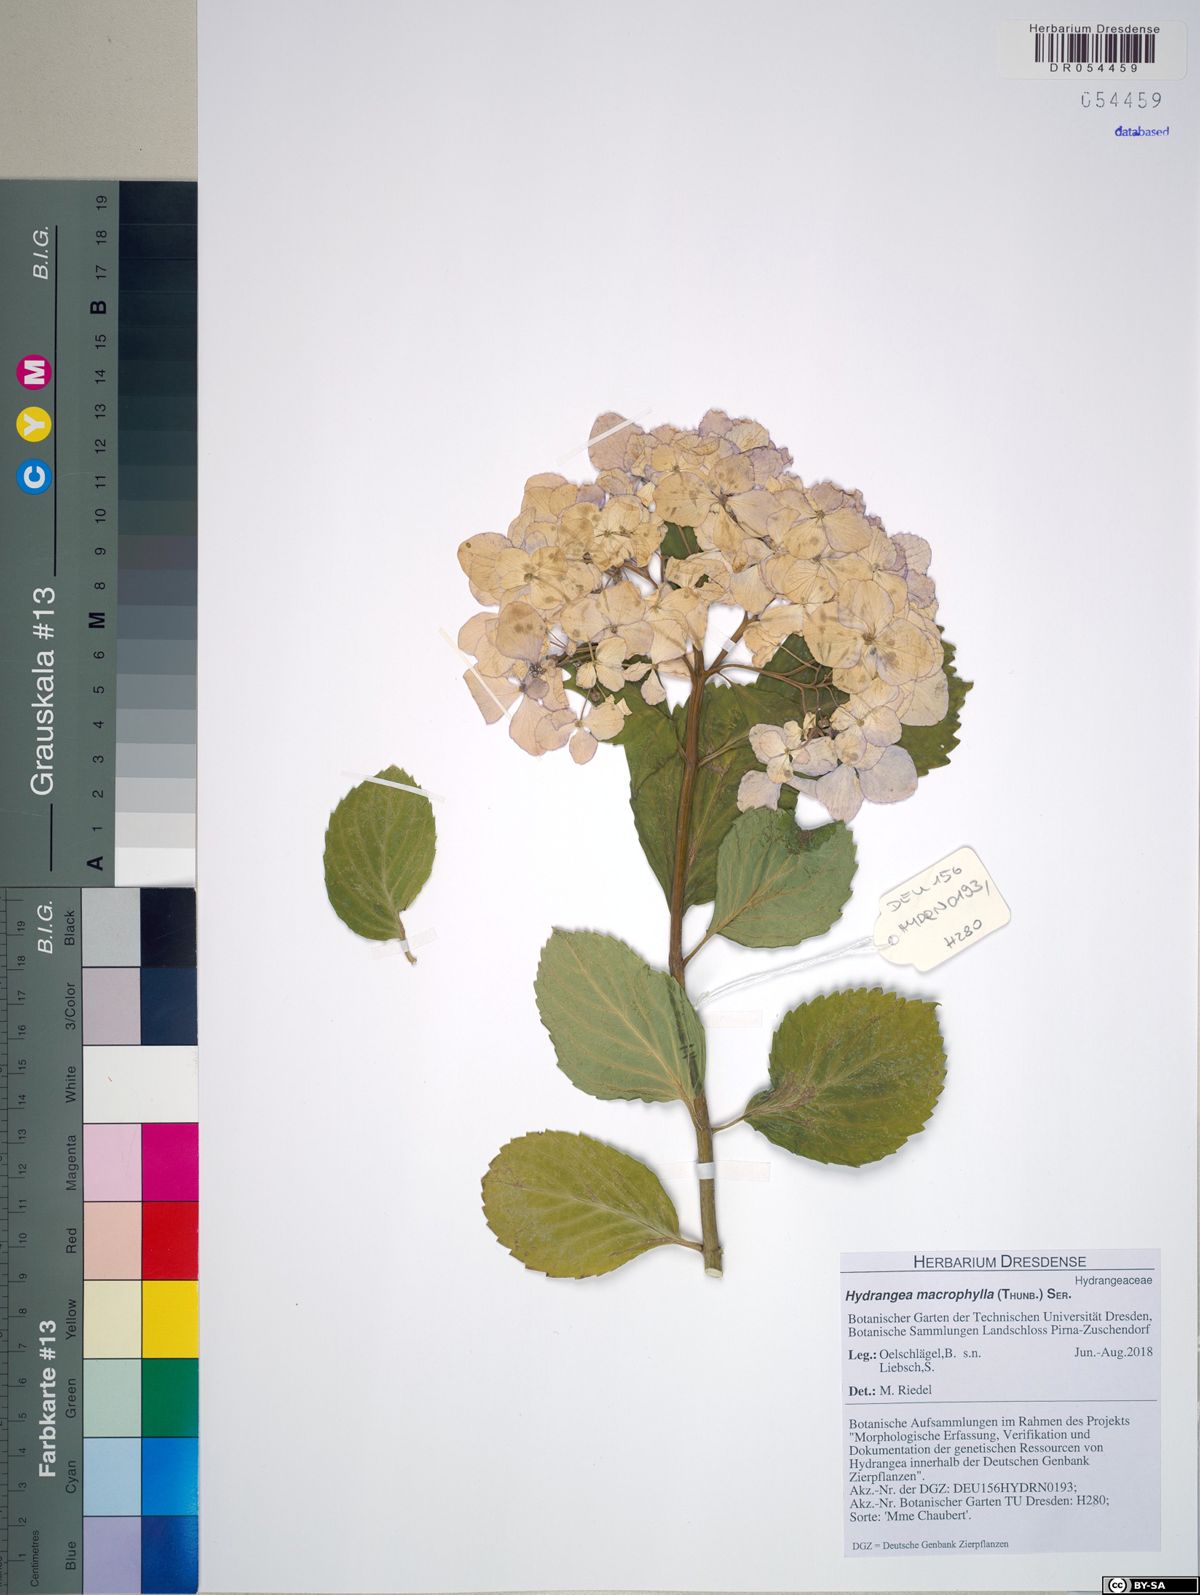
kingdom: Plantae
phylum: Tracheophyta
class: Magnoliopsida
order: Cornales
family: Hydrangeaceae
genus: Hydrangea
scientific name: Hydrangea macrophylla
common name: Hydrangea
